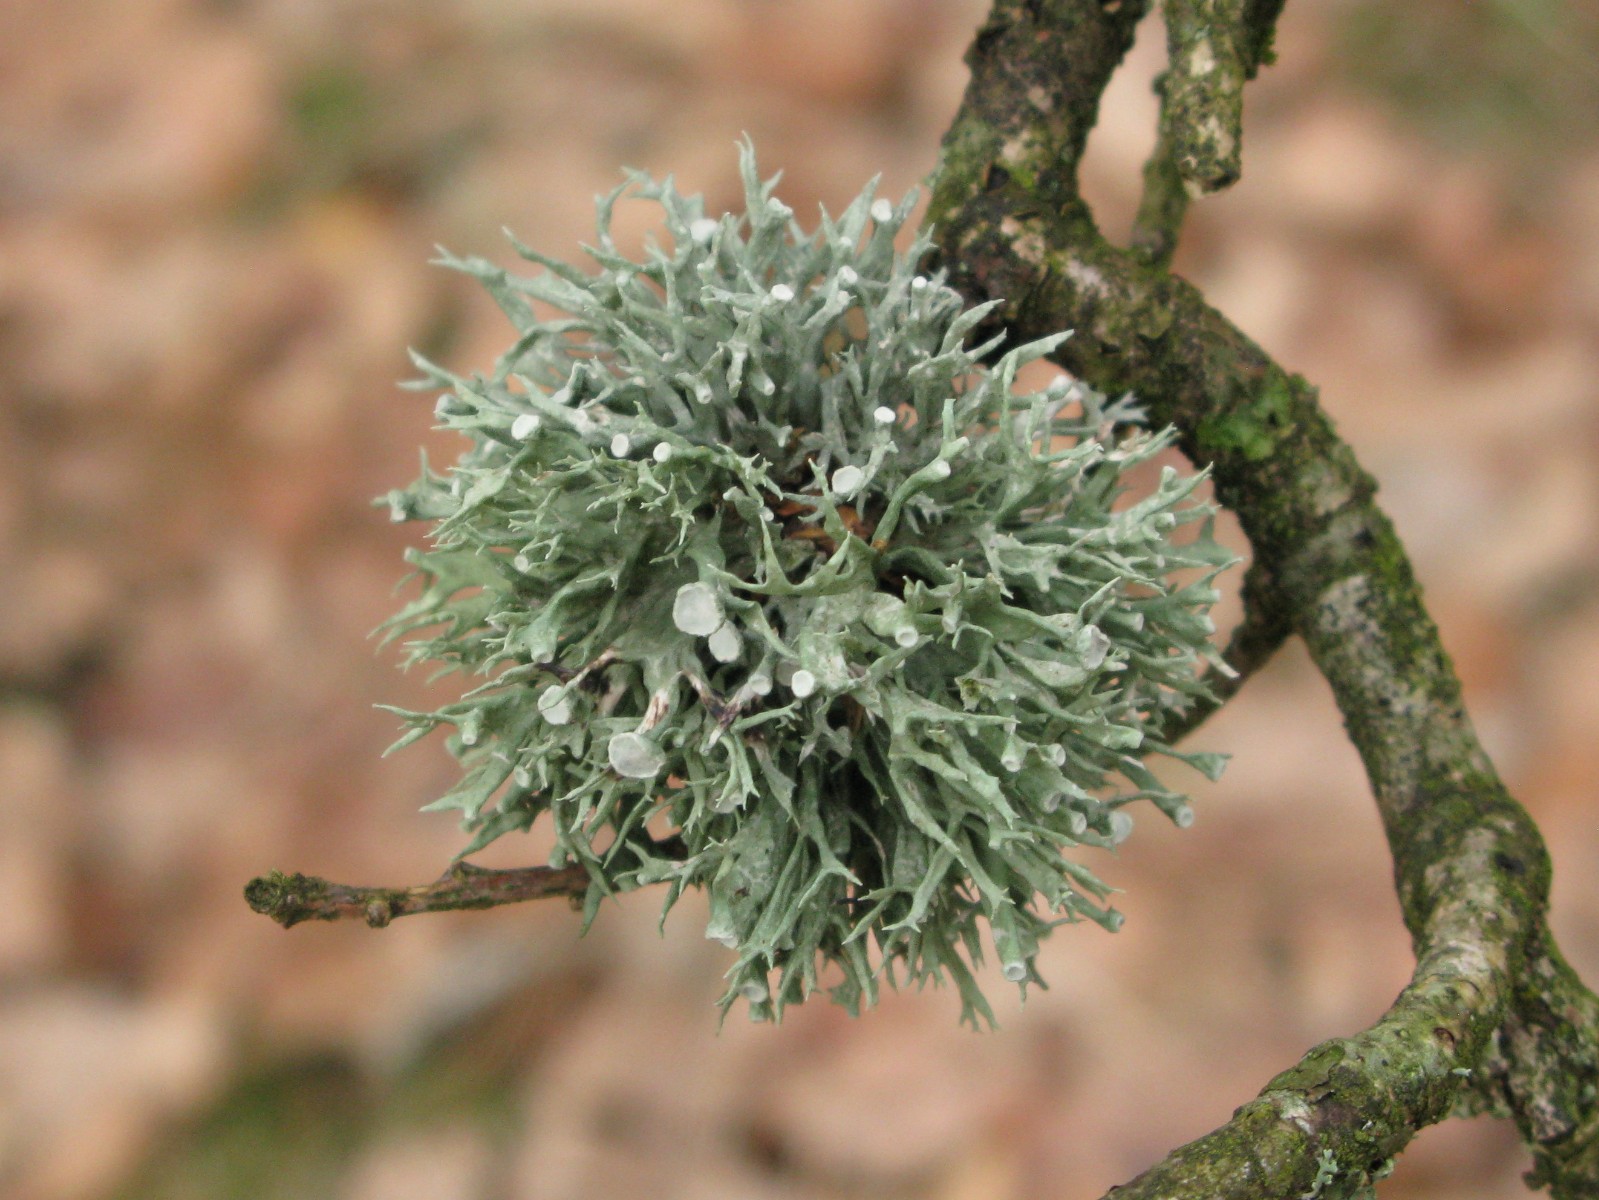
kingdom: Fungi
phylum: Ascomycota
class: Lecanoromycetes
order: Lecanorales
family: Ramalinaceae
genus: Ramalina
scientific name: Ramalina fastigiata
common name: tue-grenlav
